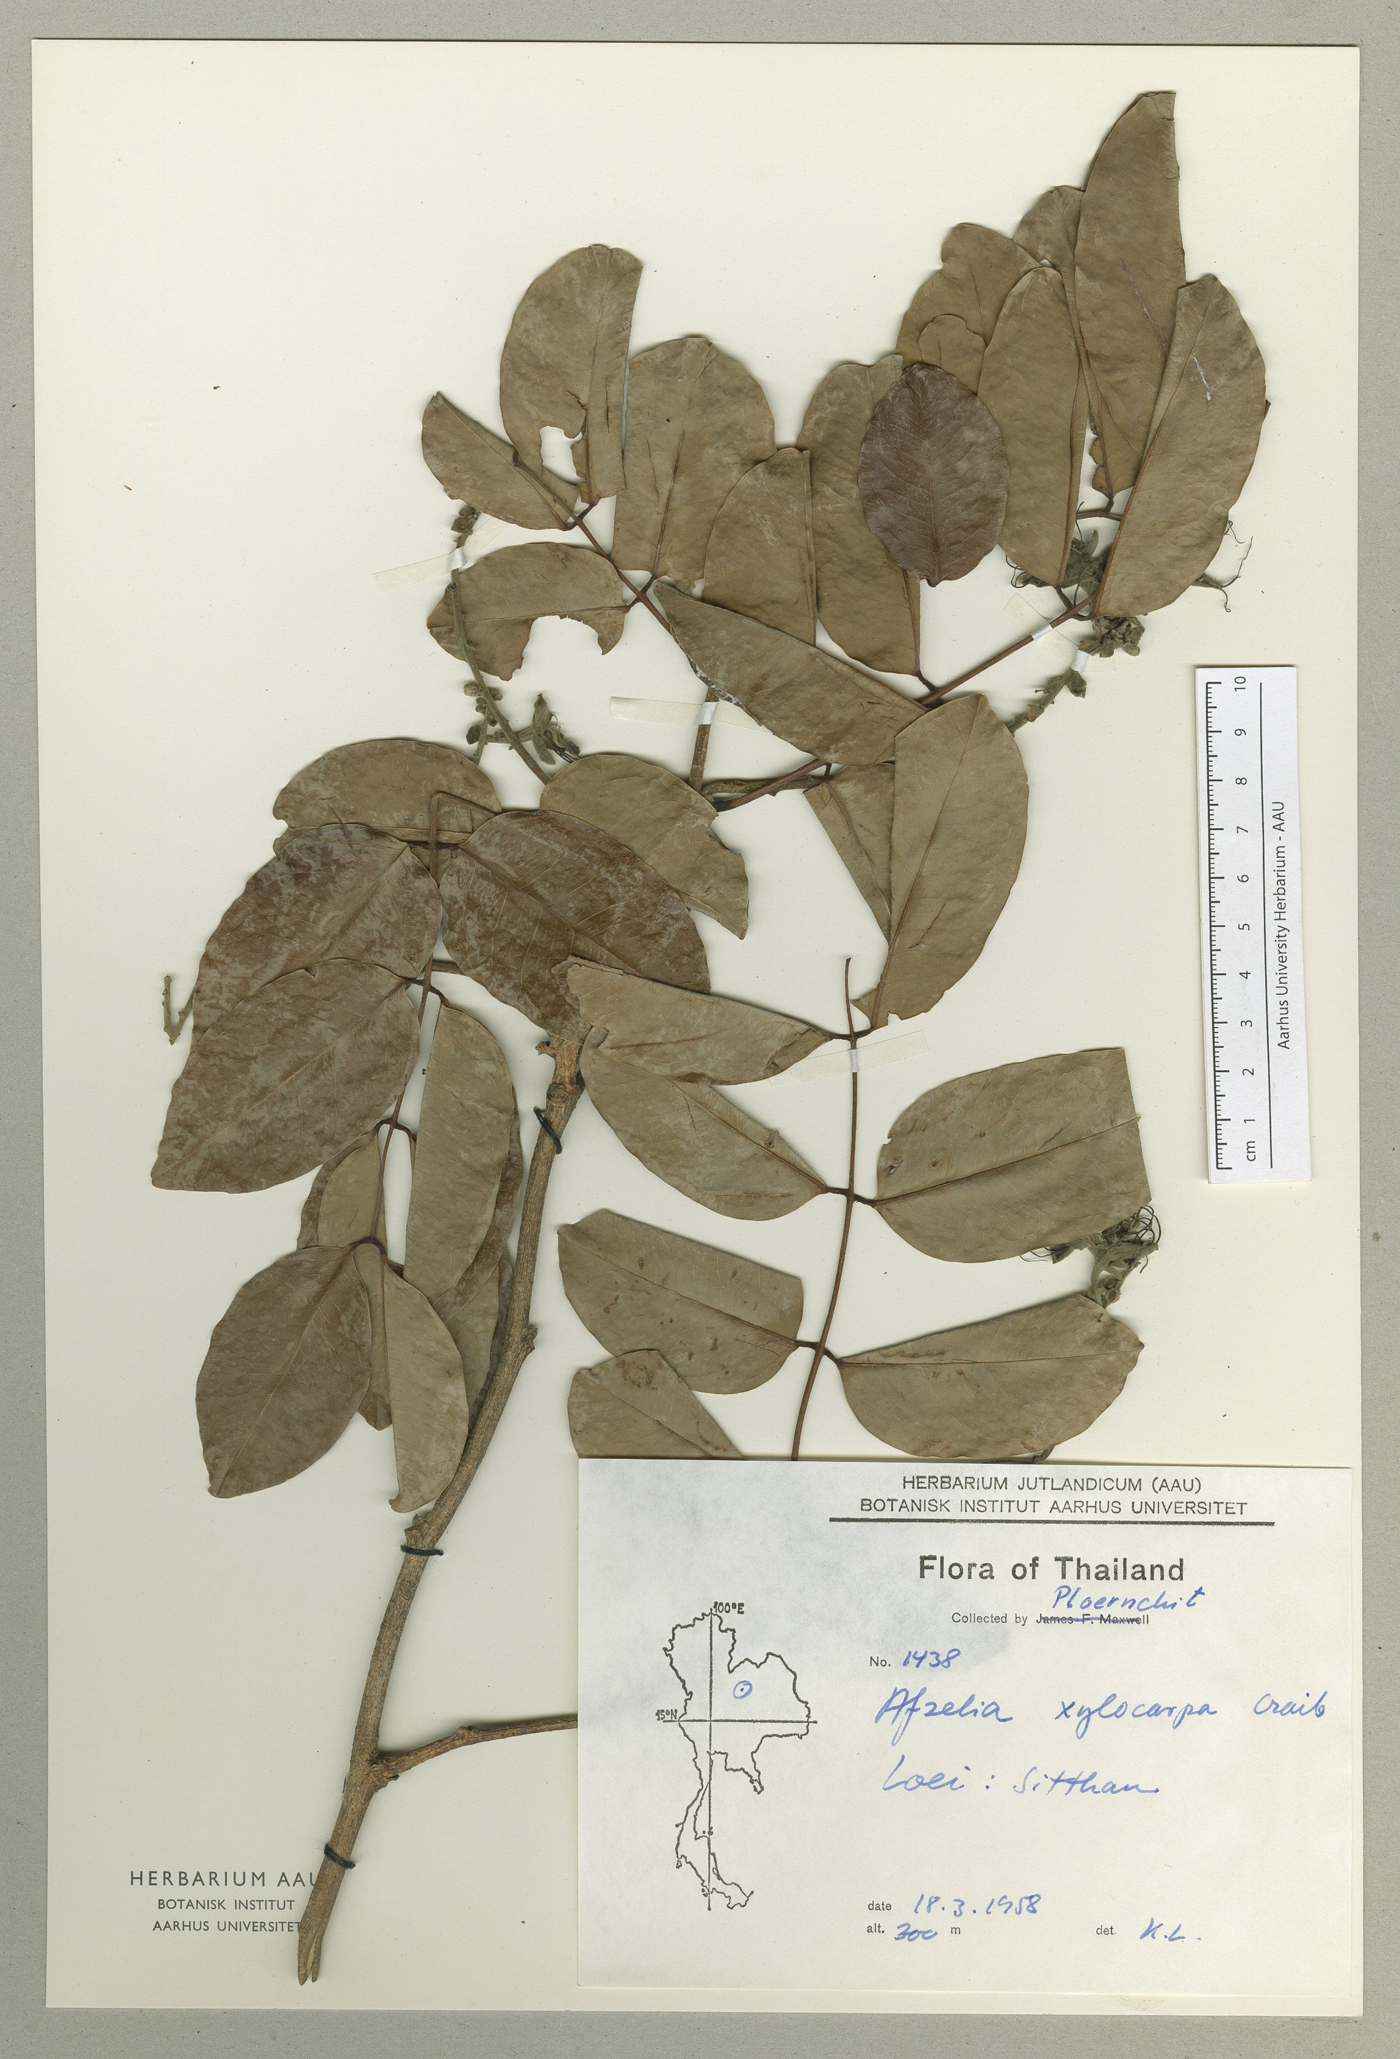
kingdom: Plantae
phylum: Tracheophyta
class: Magnoliopsida
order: Fabales
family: Fabaceae
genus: Afzelia
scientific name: Afzelia xylocarpa
